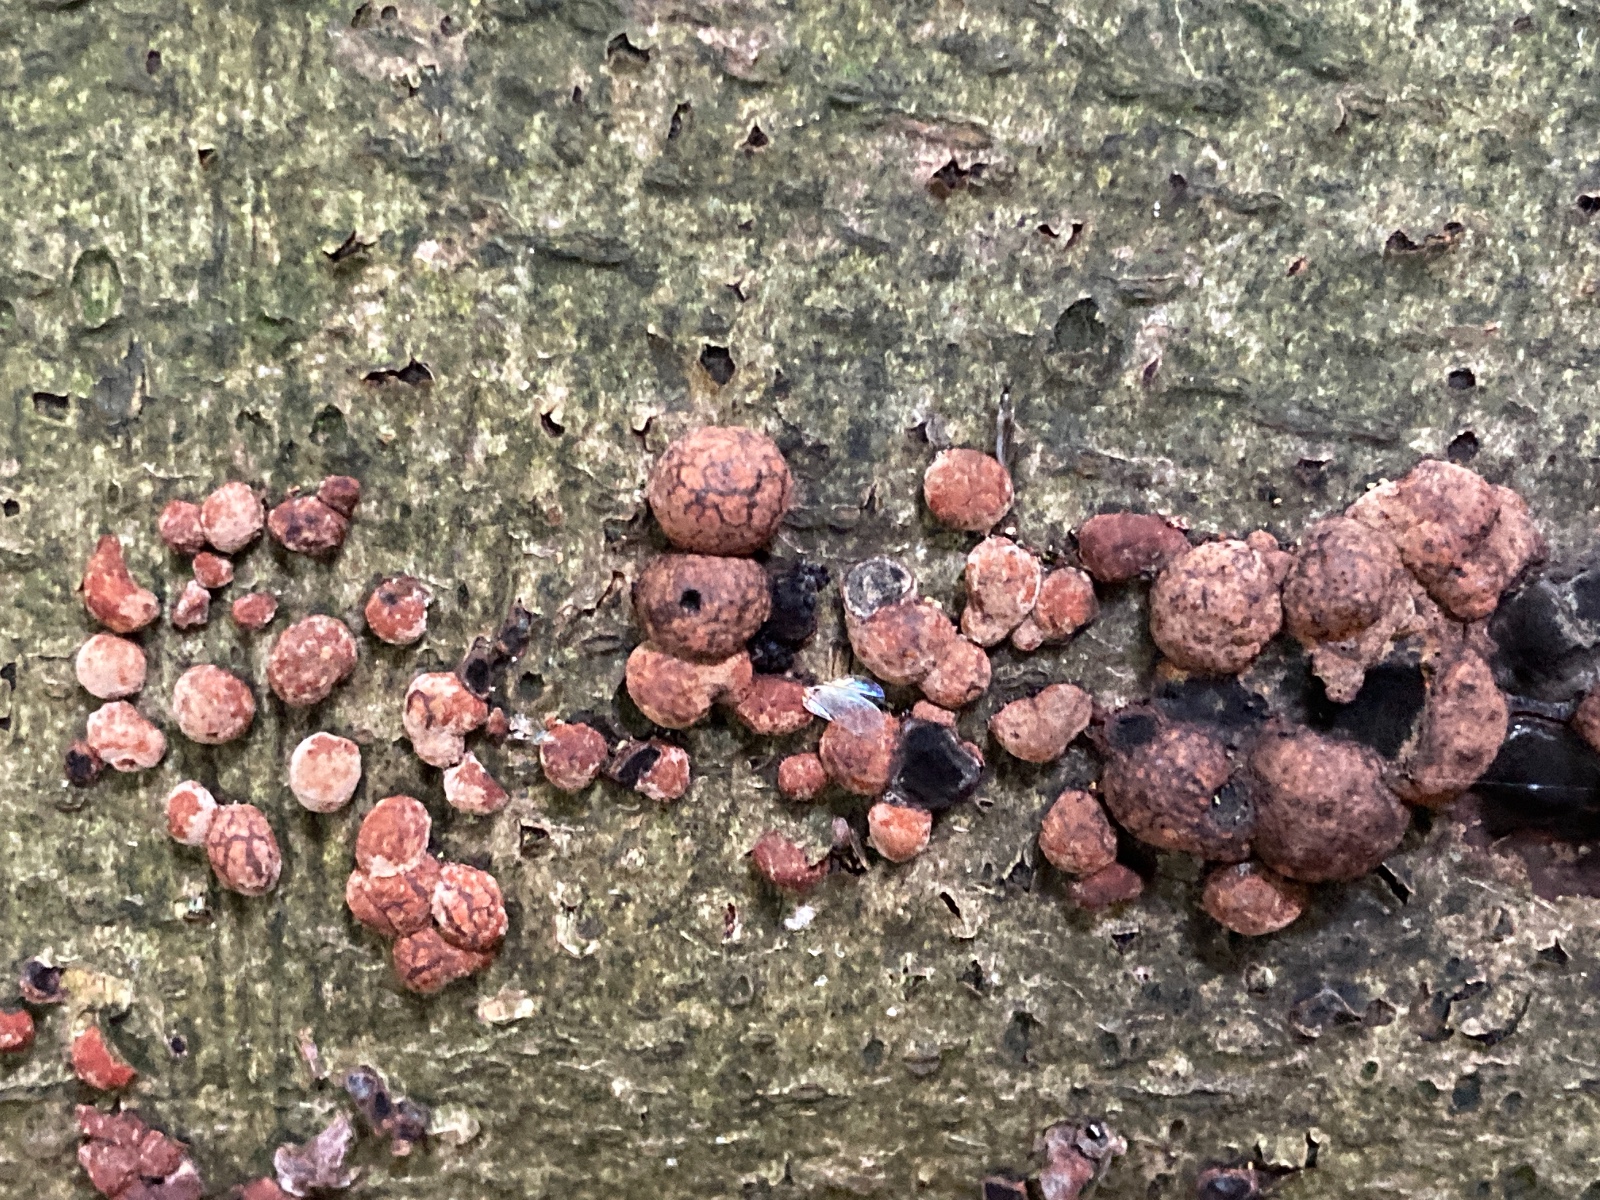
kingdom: Fungi
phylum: Ascomycota
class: Sordariomycetes
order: Xylariales
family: Hypoxylaceae
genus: Hypoxylon
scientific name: Hypoxylon fragiforme
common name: kuljordbær
